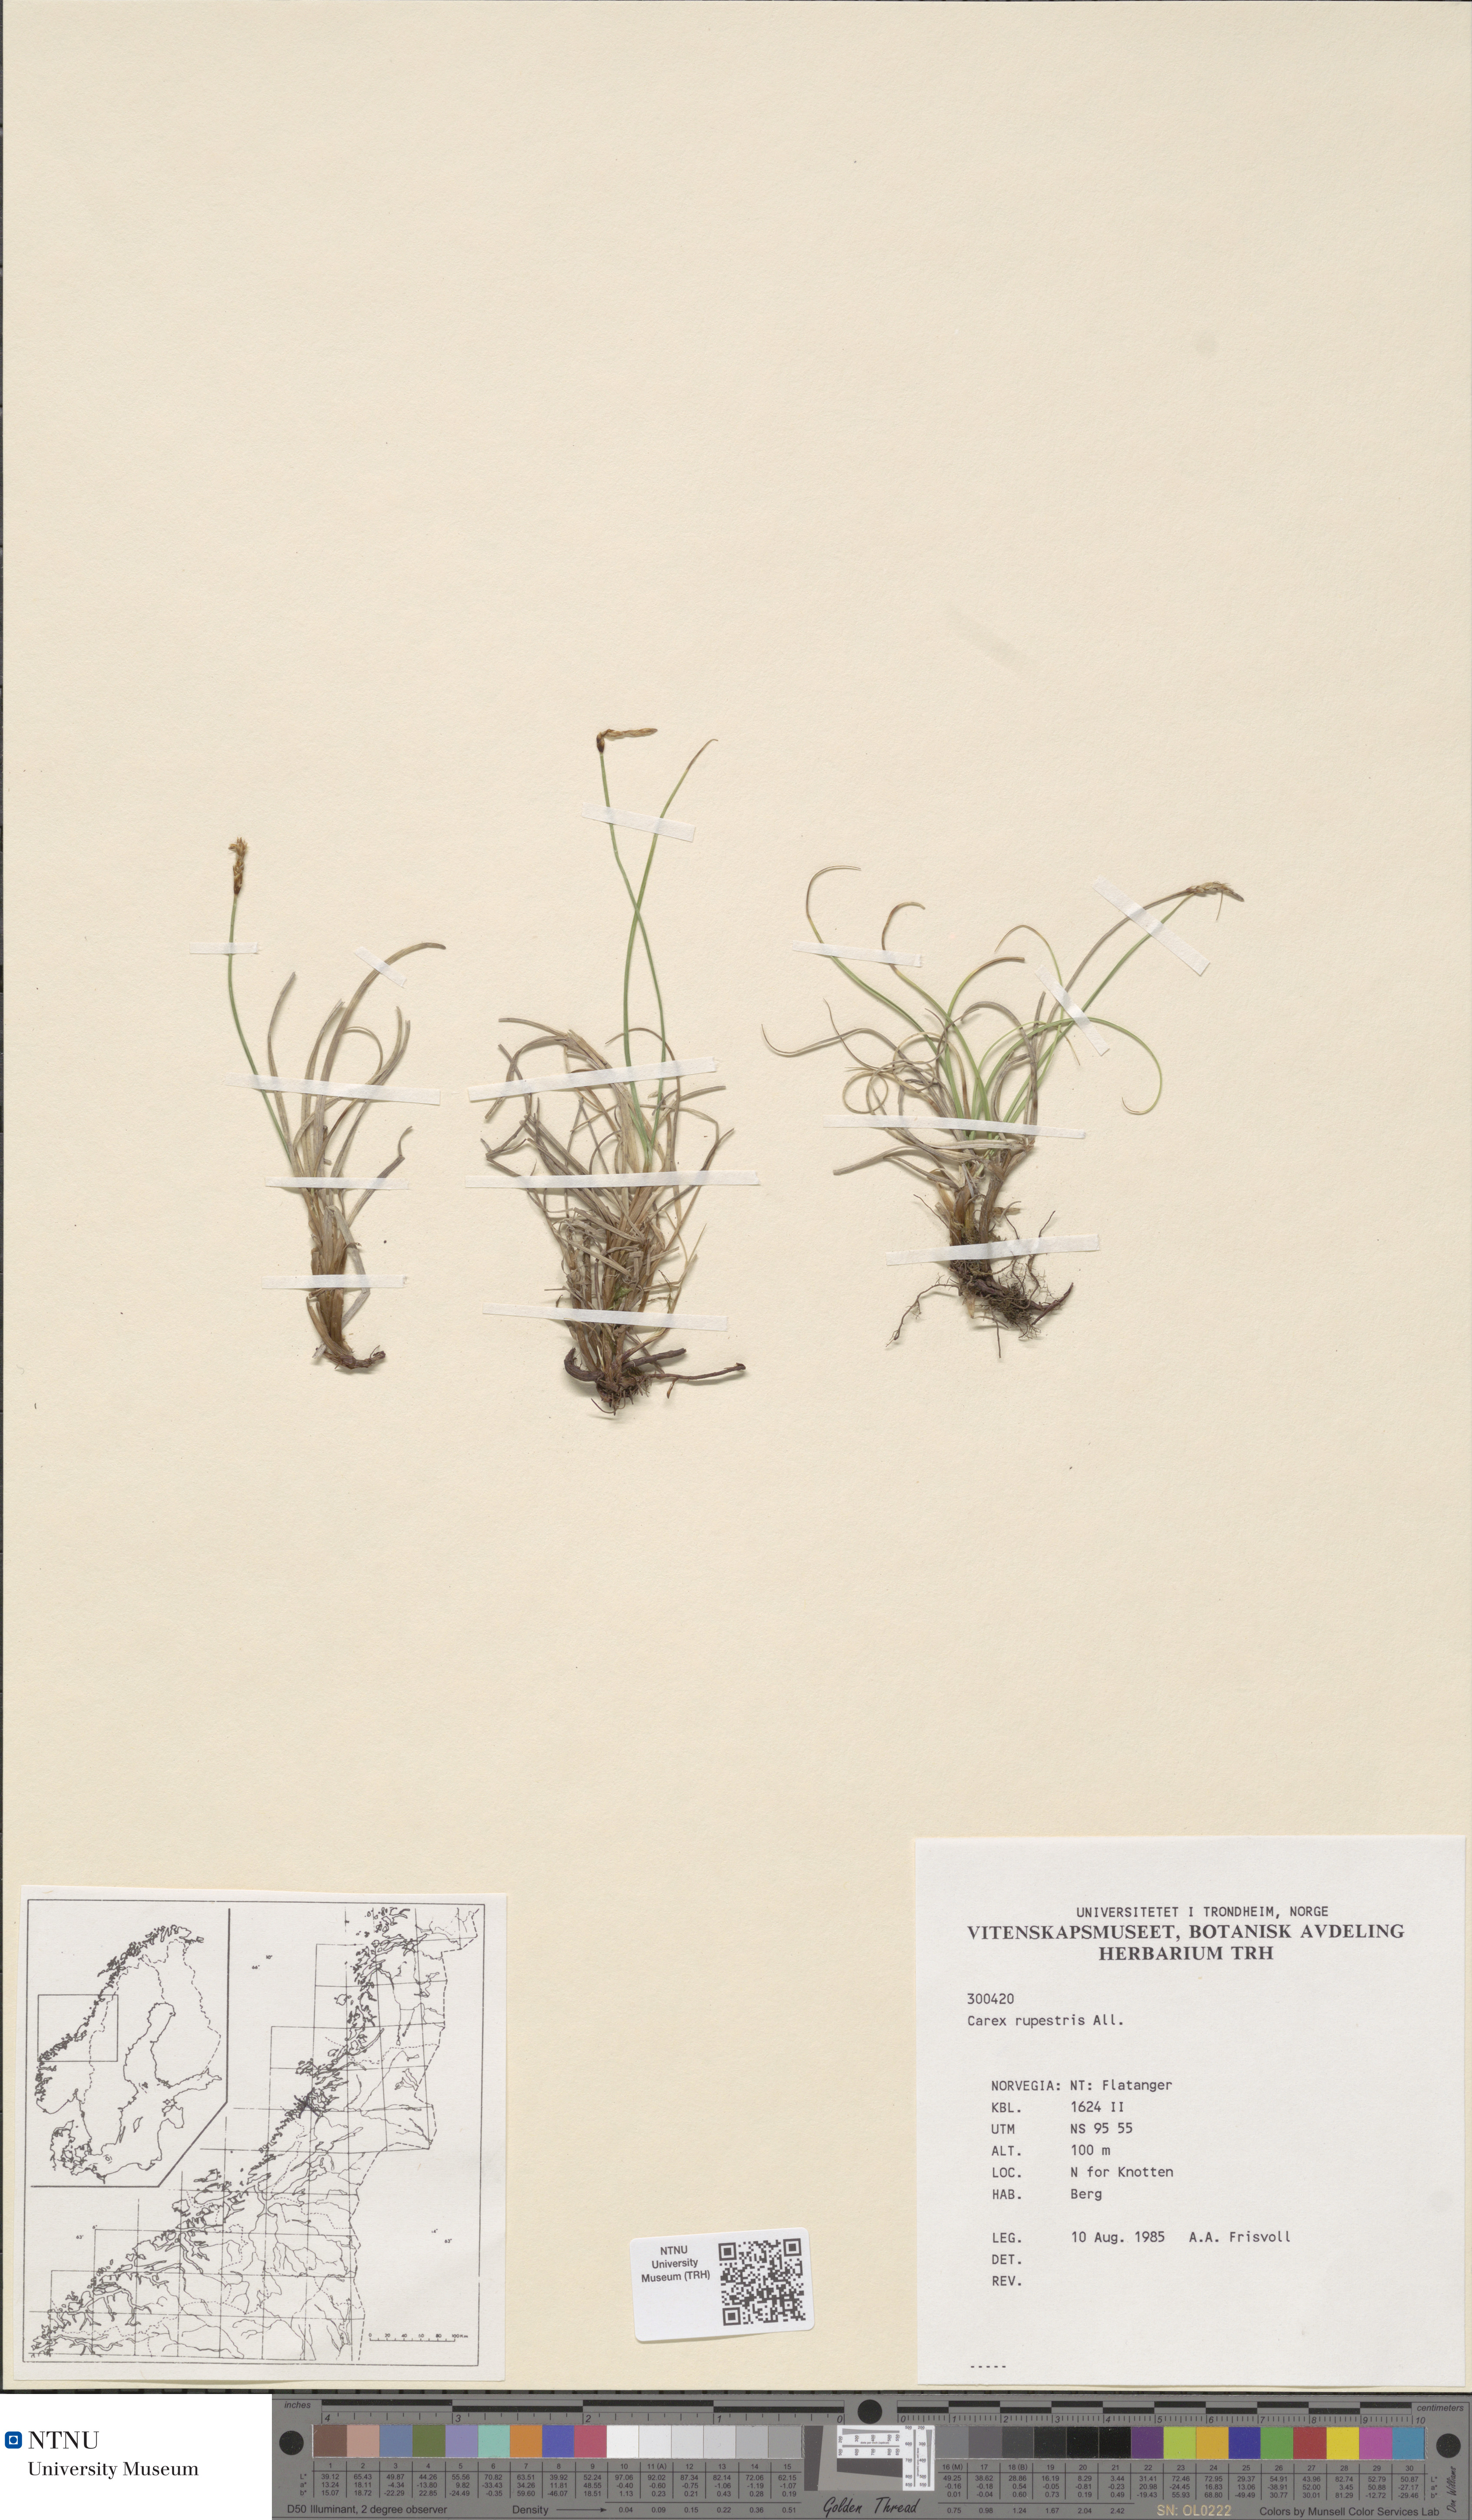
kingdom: Plantae
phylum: Tracheophyta
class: Liliopsida
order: Poales
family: Cyperaceae
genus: Carex
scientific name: Carex rupestris
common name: Rock sedge
